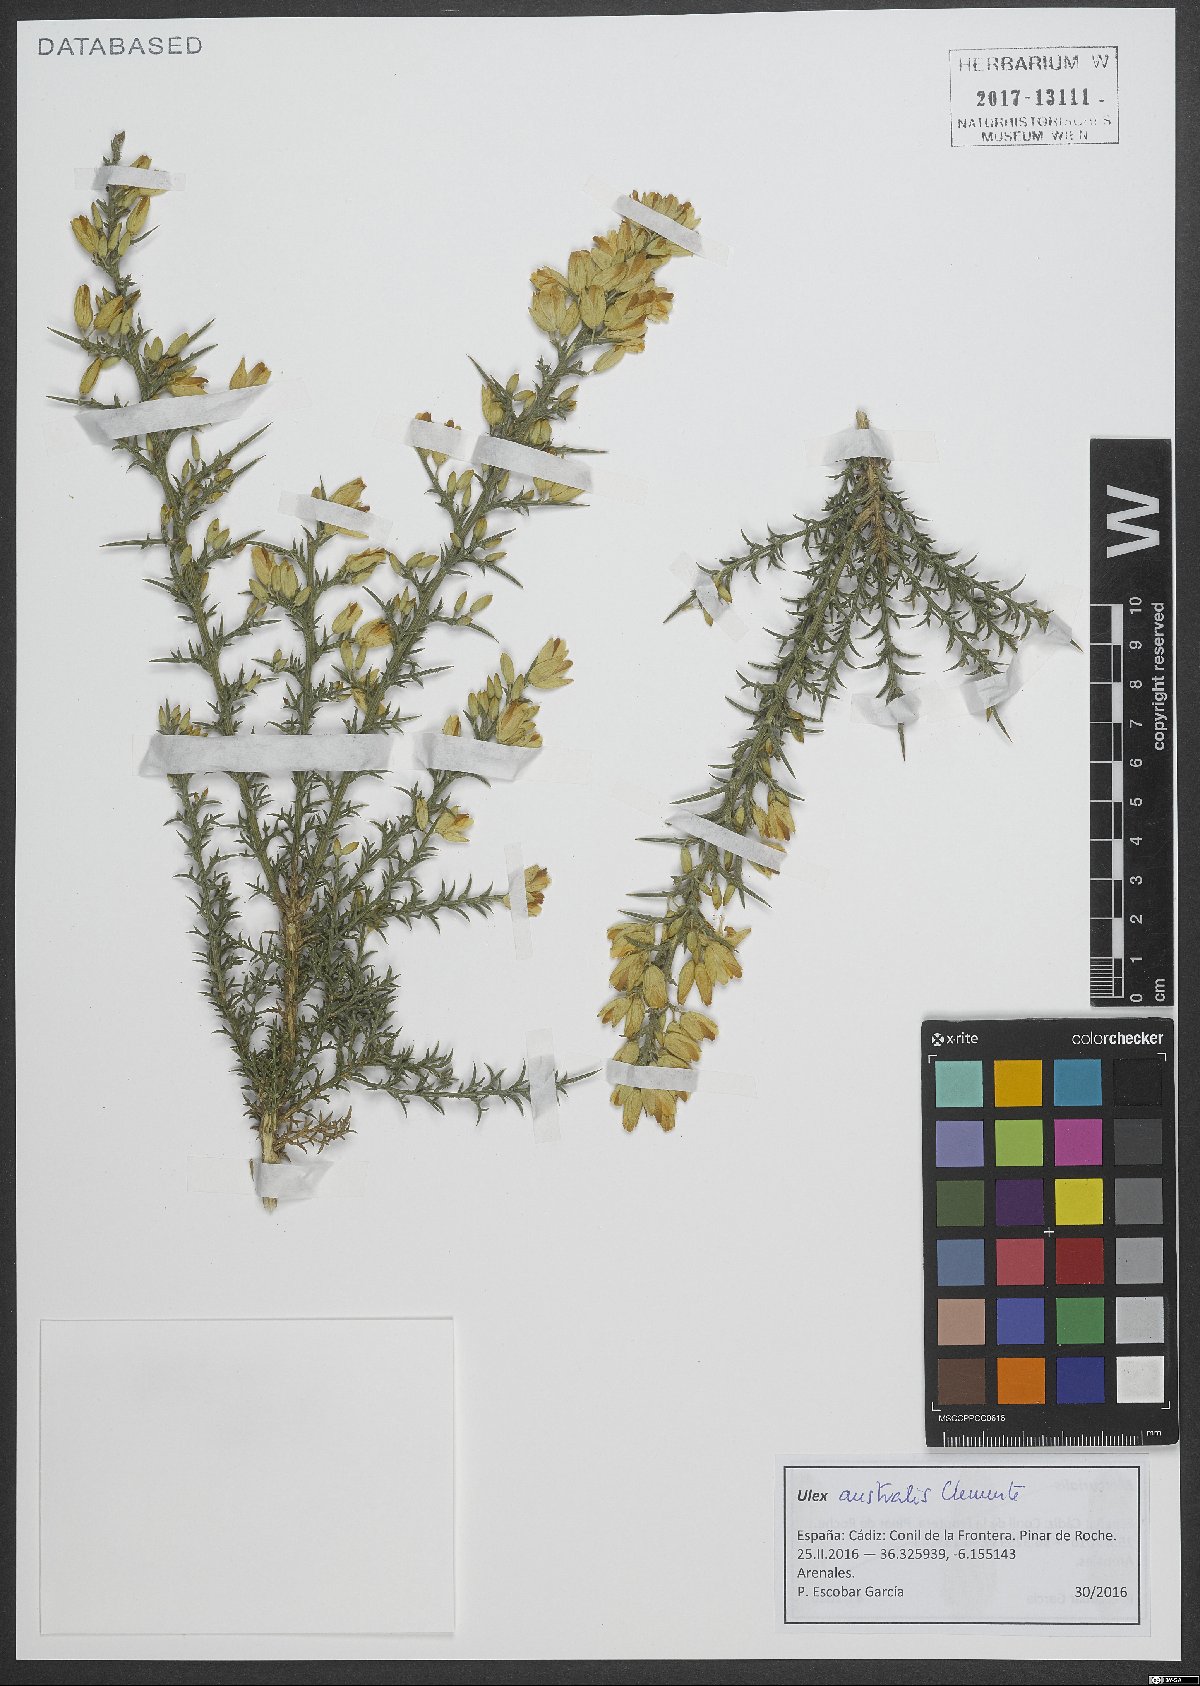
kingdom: Plantae
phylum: Tracheophyta
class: Magnoliopsida
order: Fabales
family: Fabaceae
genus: Ulex
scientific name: Ulex australis
